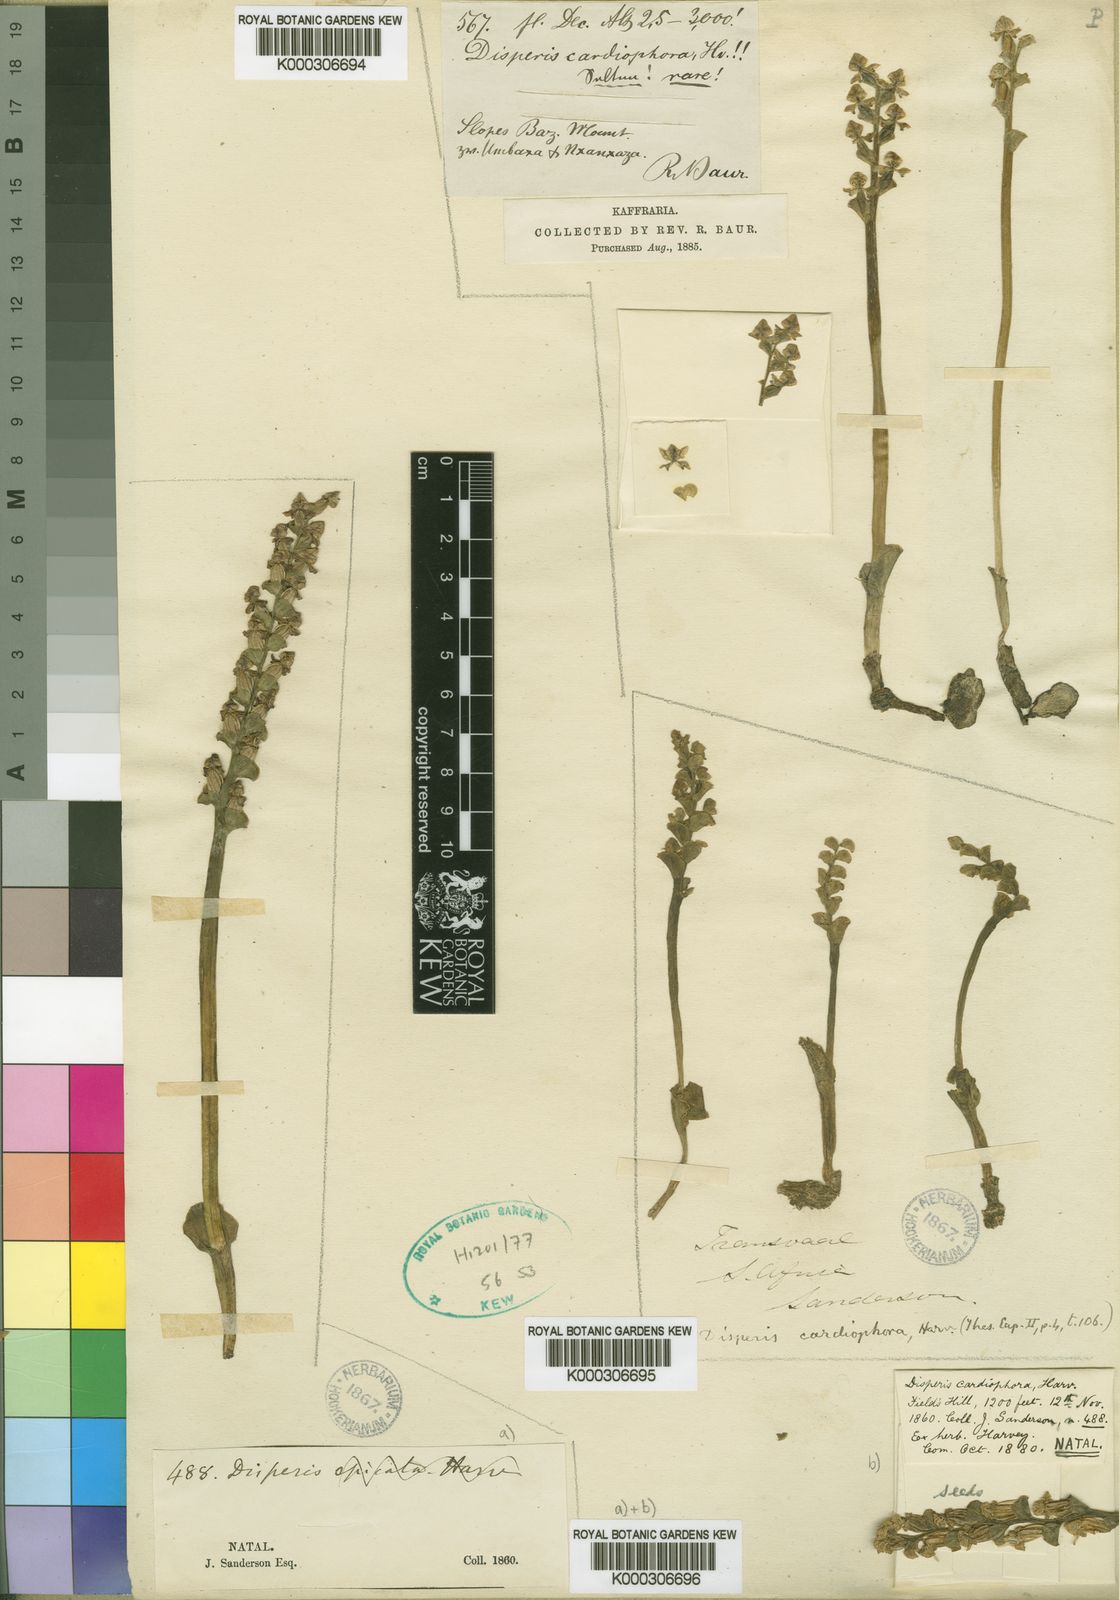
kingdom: Plantae
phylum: Tracheophyta
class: Liliopsida
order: Asparagales
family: Orchidaceae
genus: Disperis
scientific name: Disperis cardiophora
